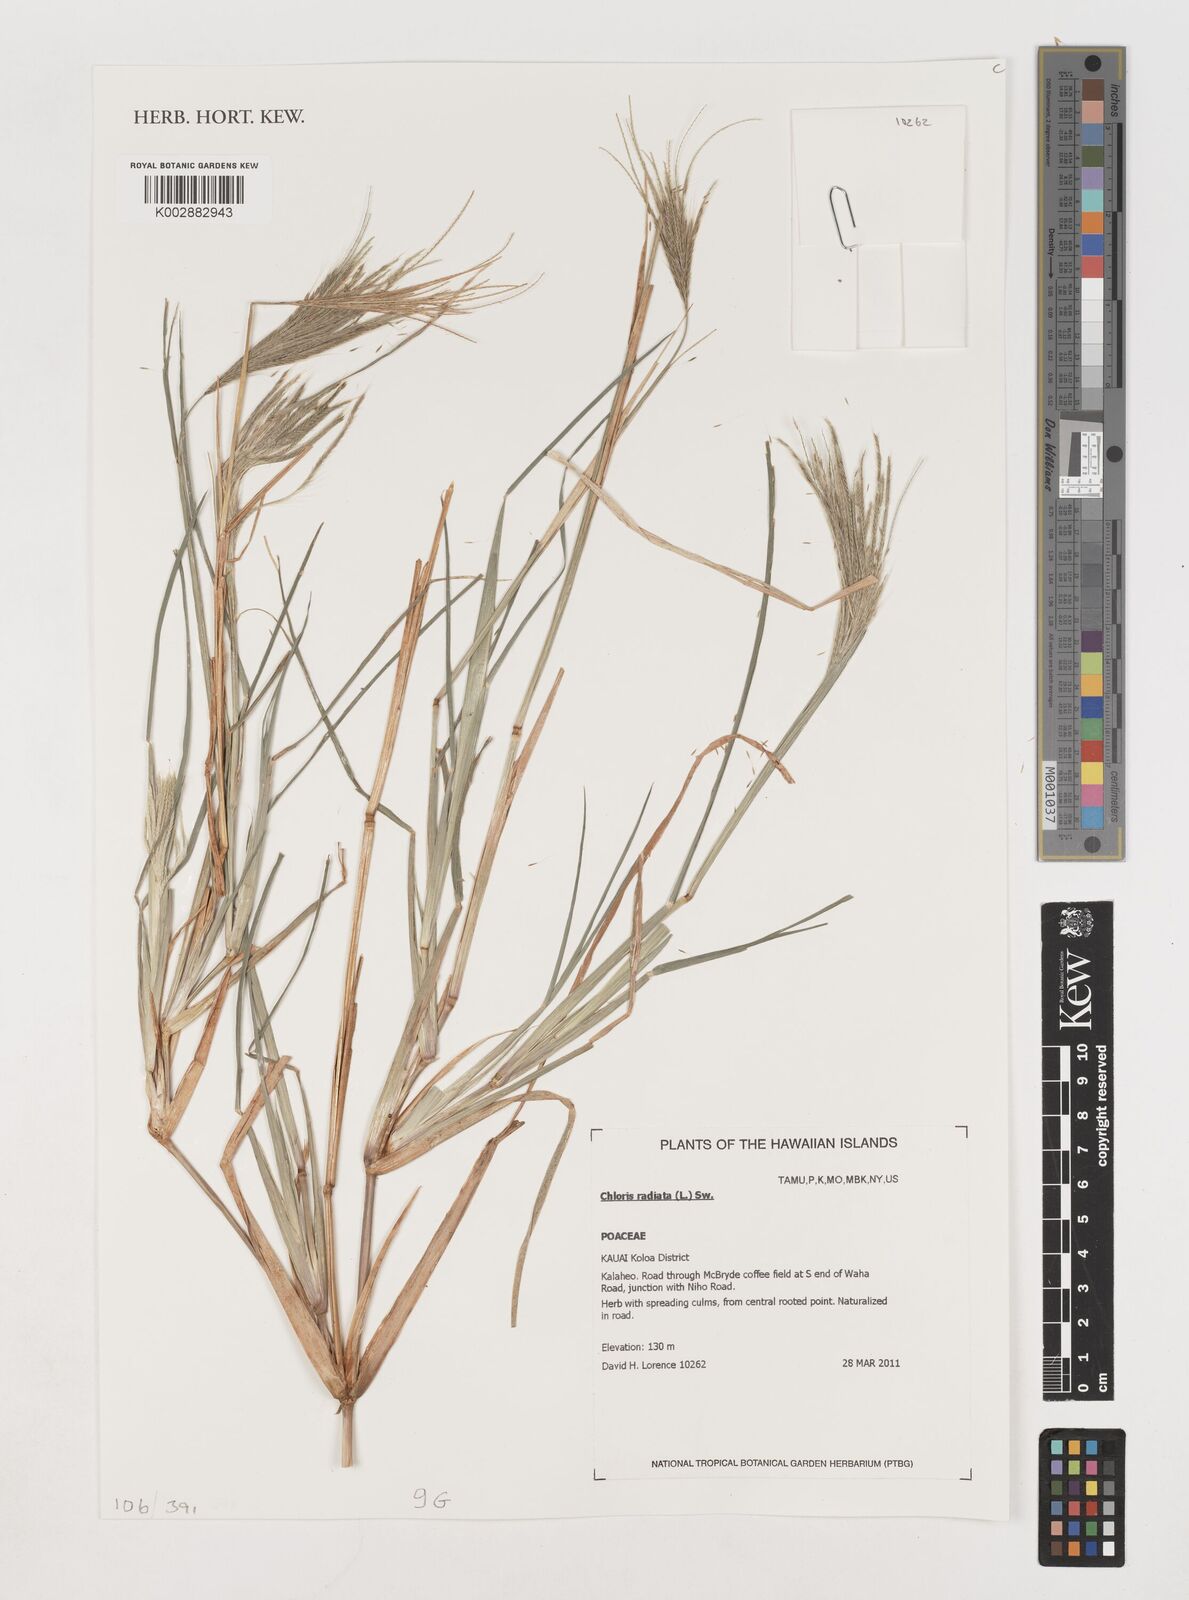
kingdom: Plantae
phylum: Tracheophyta
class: Liliopsida
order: Poales
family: Poaceae
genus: Chloris
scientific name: Chloris radiata
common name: Radiate fingergrass
